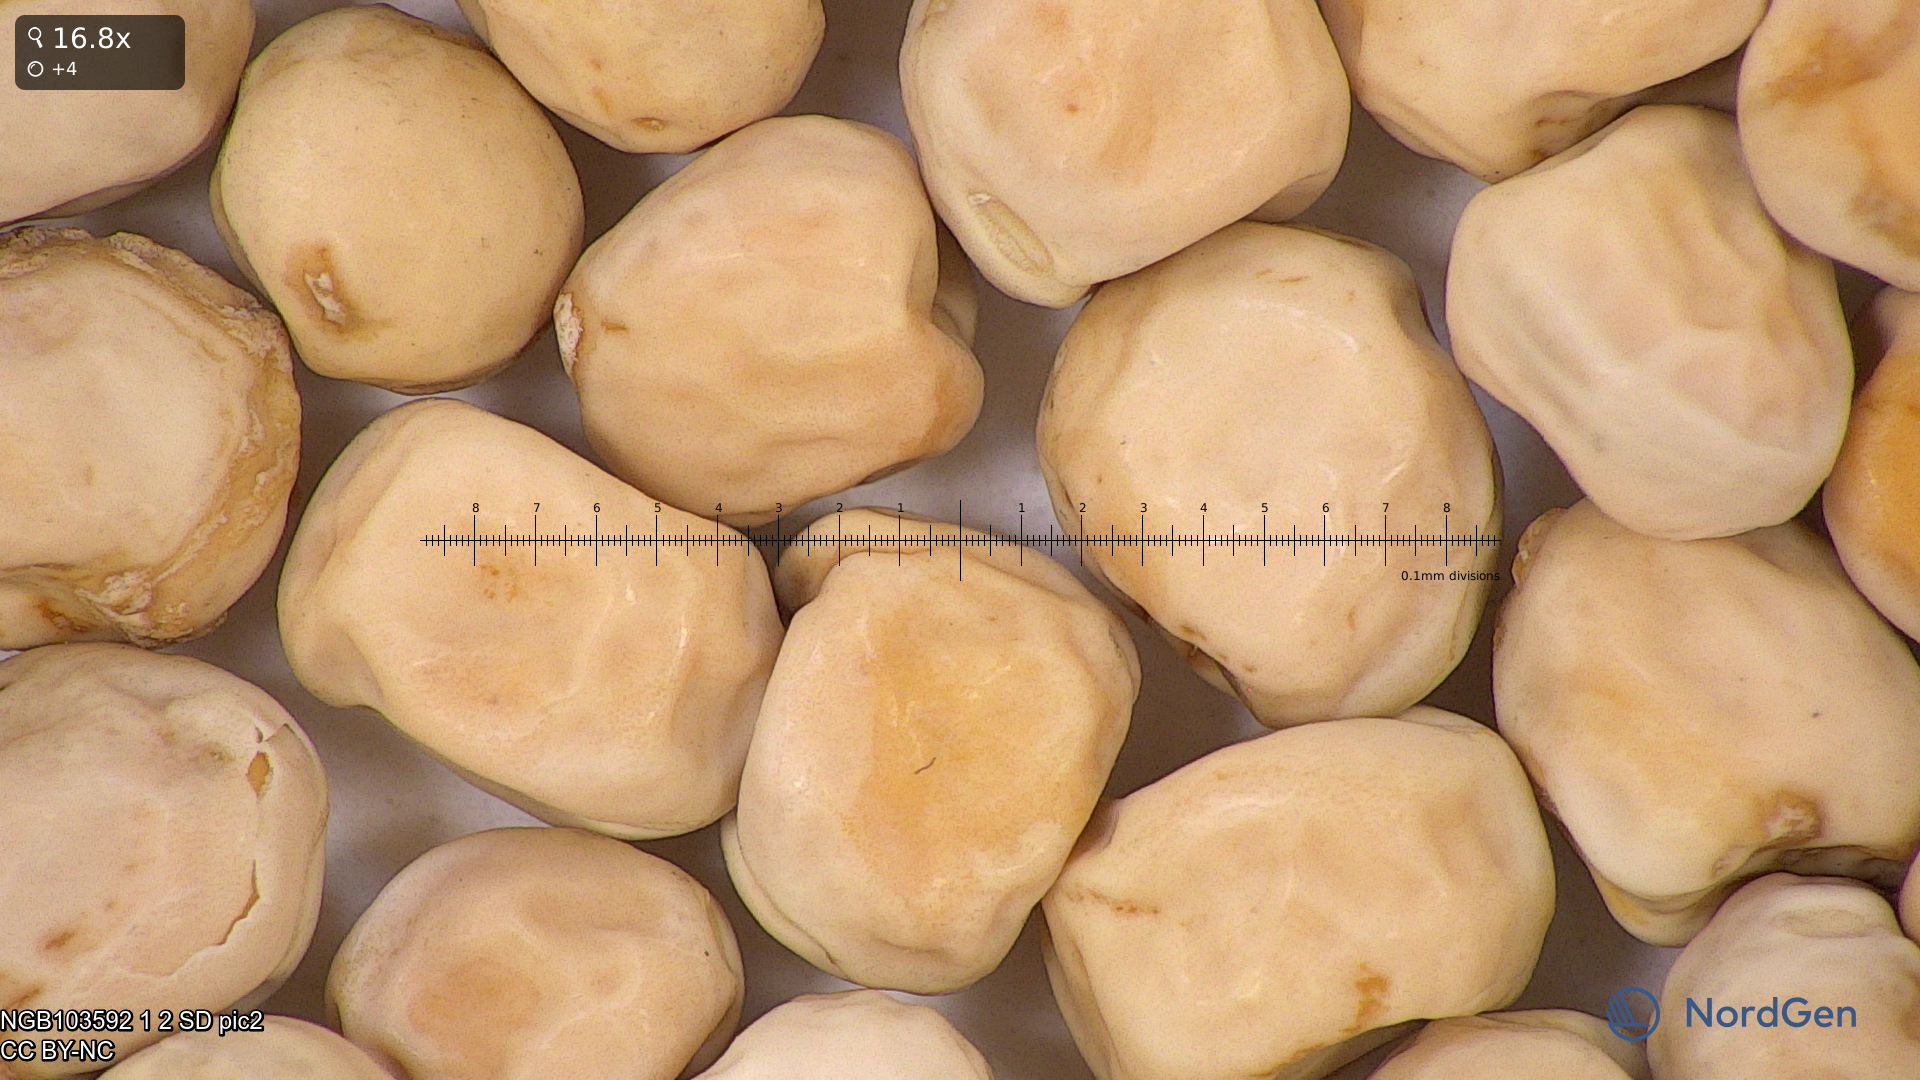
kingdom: Plantae
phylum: Tracheophyta
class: Magnoliopsida
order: Fabales
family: Fabaceae
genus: Lathyrus
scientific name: Lathyrus oleraceus
